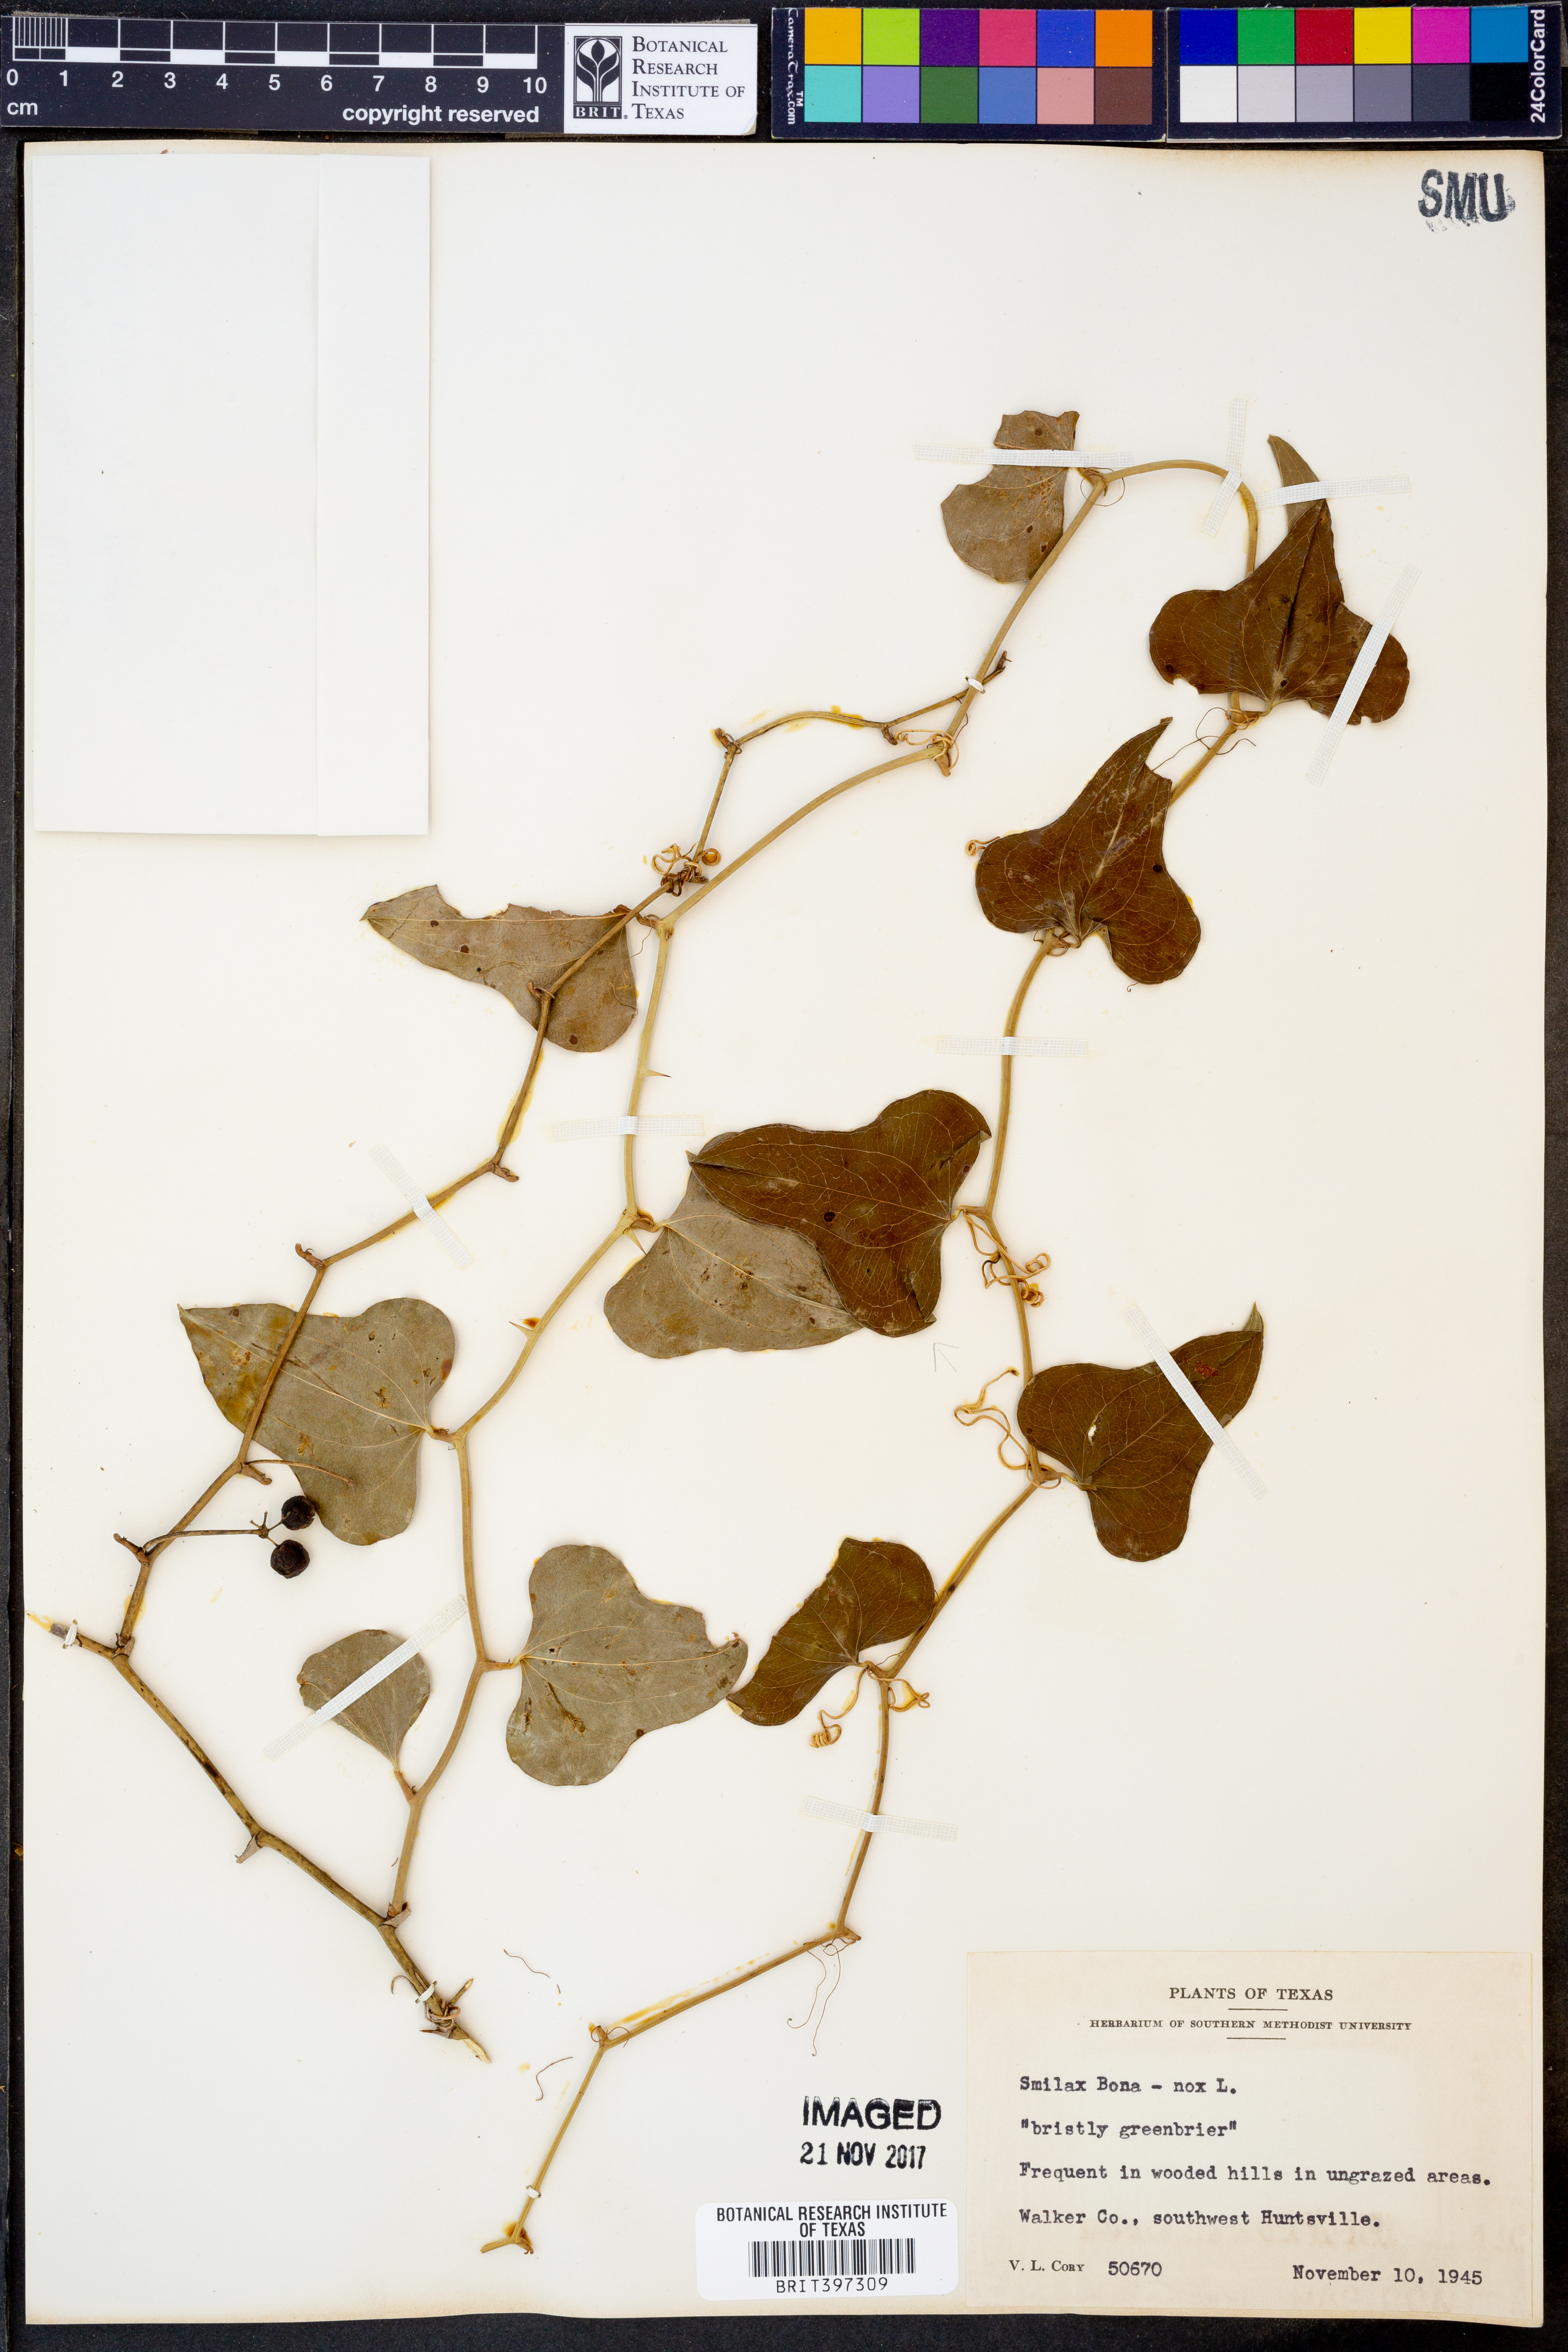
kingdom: Plantae
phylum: Tracheophyta
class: Liliopsida
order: Liliales
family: Smilacaceae
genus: Smilax
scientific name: Smilax bona-nox
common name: Catbrier
